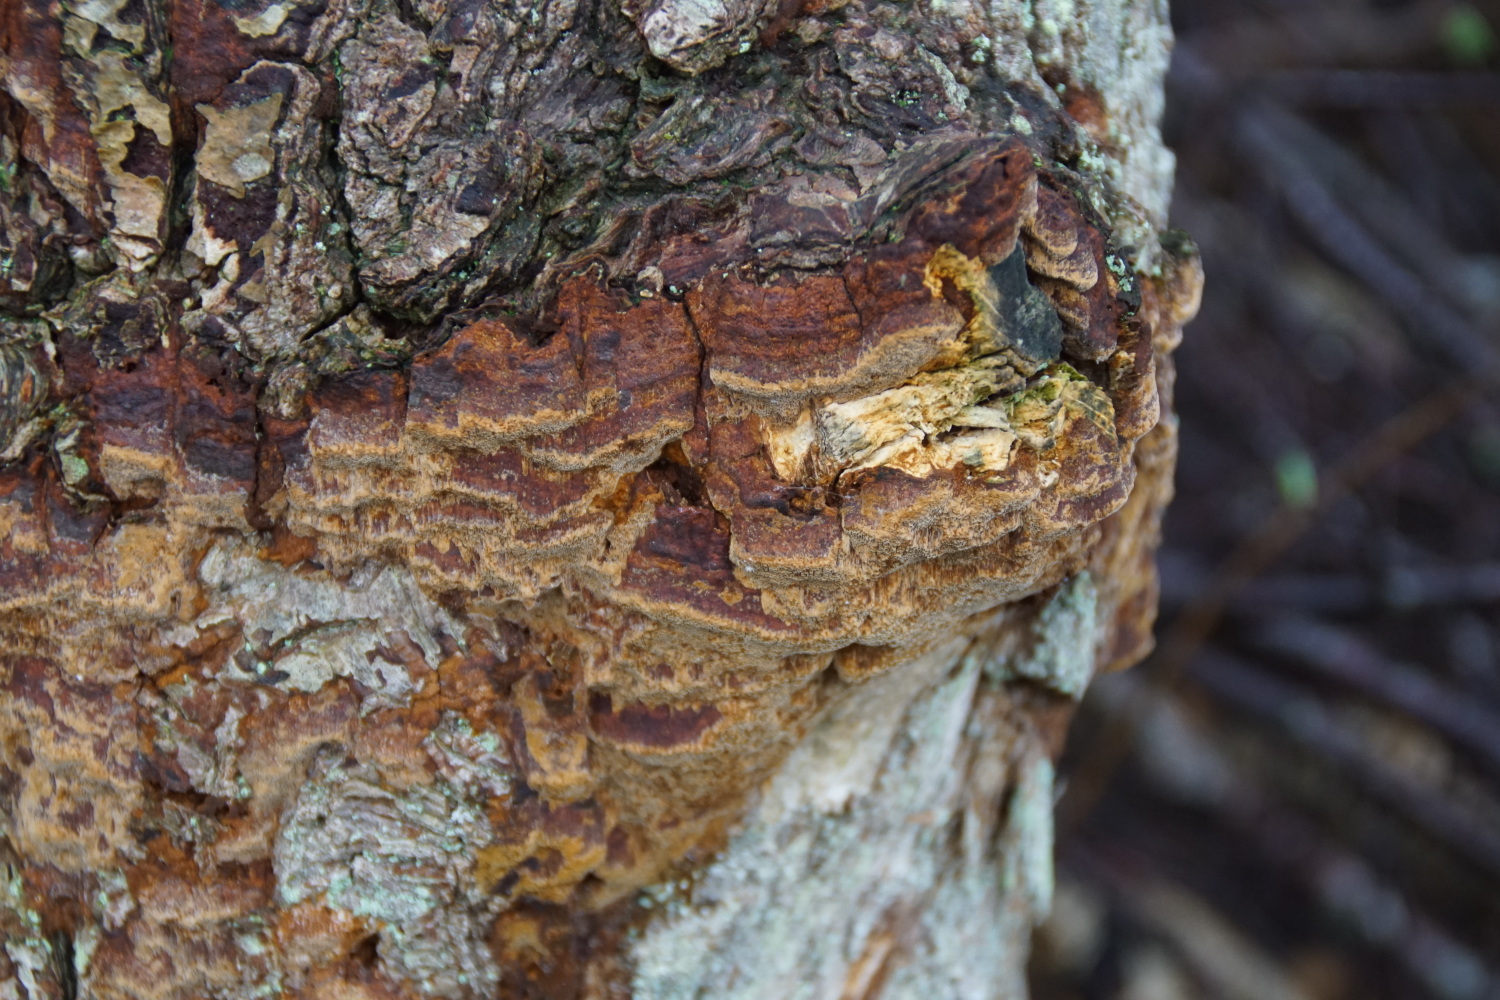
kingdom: Fungi
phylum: Basidiomycota
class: Agaricomycetes
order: Hymenochaetales
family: Hymenochaetaceae
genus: Fuscoporia
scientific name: Fuscoporia ferrea
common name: skorpe-ildporesvamp
